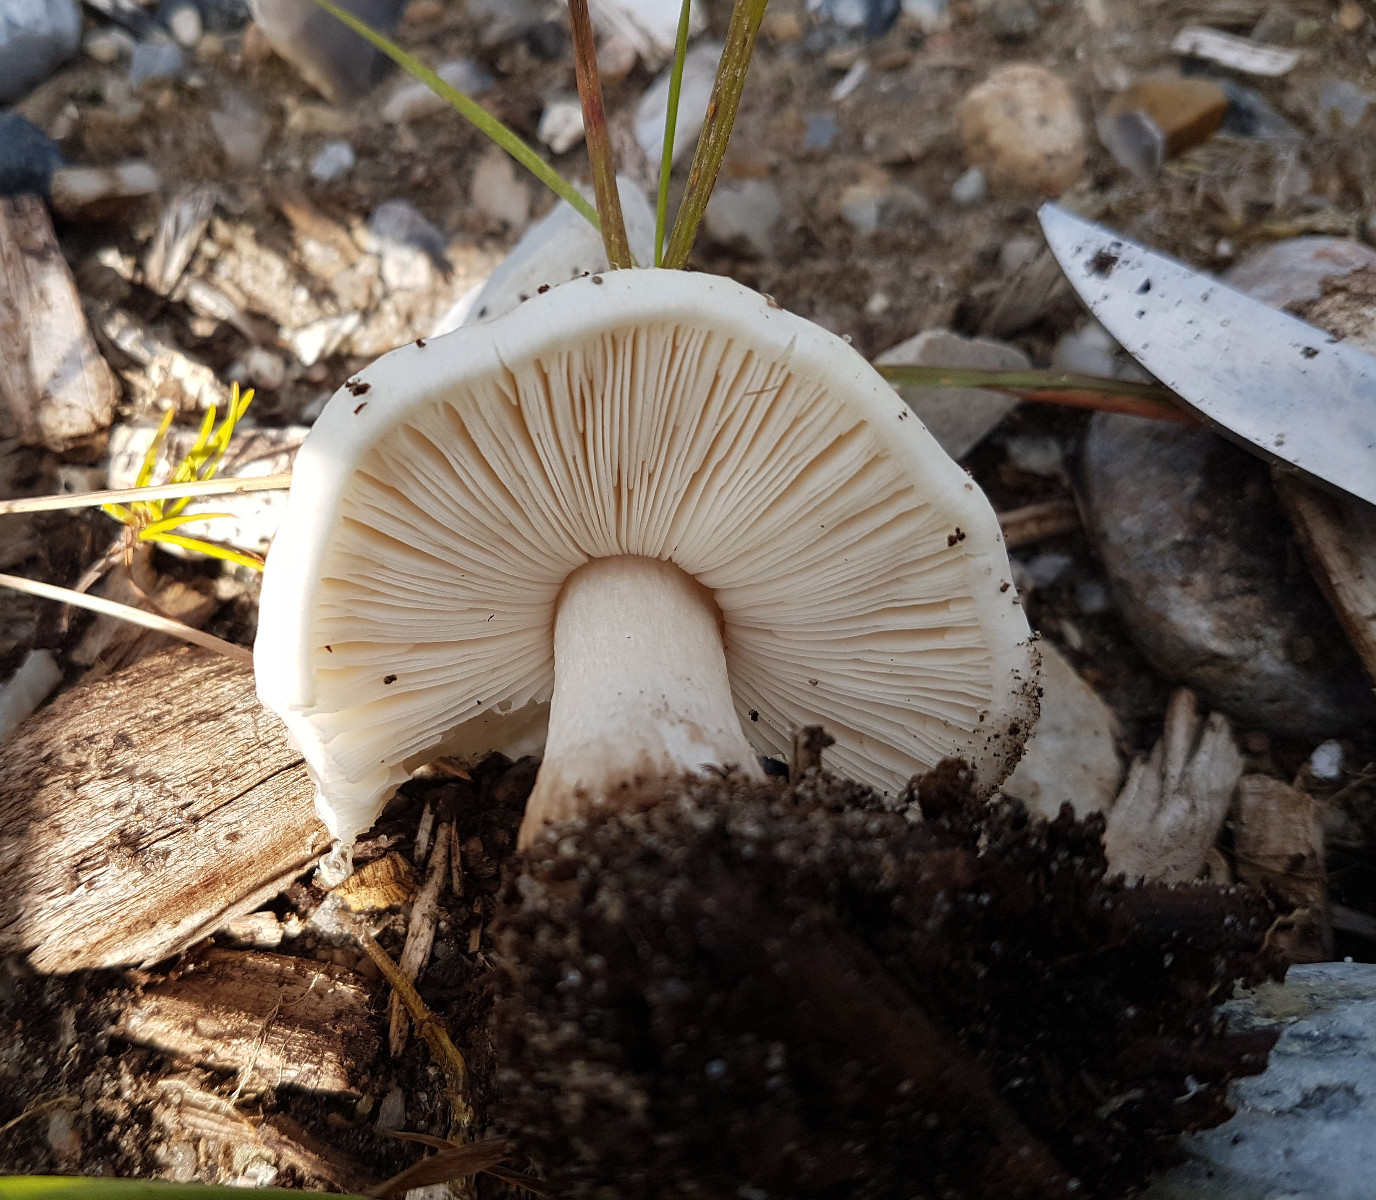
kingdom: Fungi
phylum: Basidiomycota
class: Agaricomycetes
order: Agaricales
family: Pluteaceae
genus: Pluteus
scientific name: Pluteus petasatus
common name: savsmulds-skærmhat
